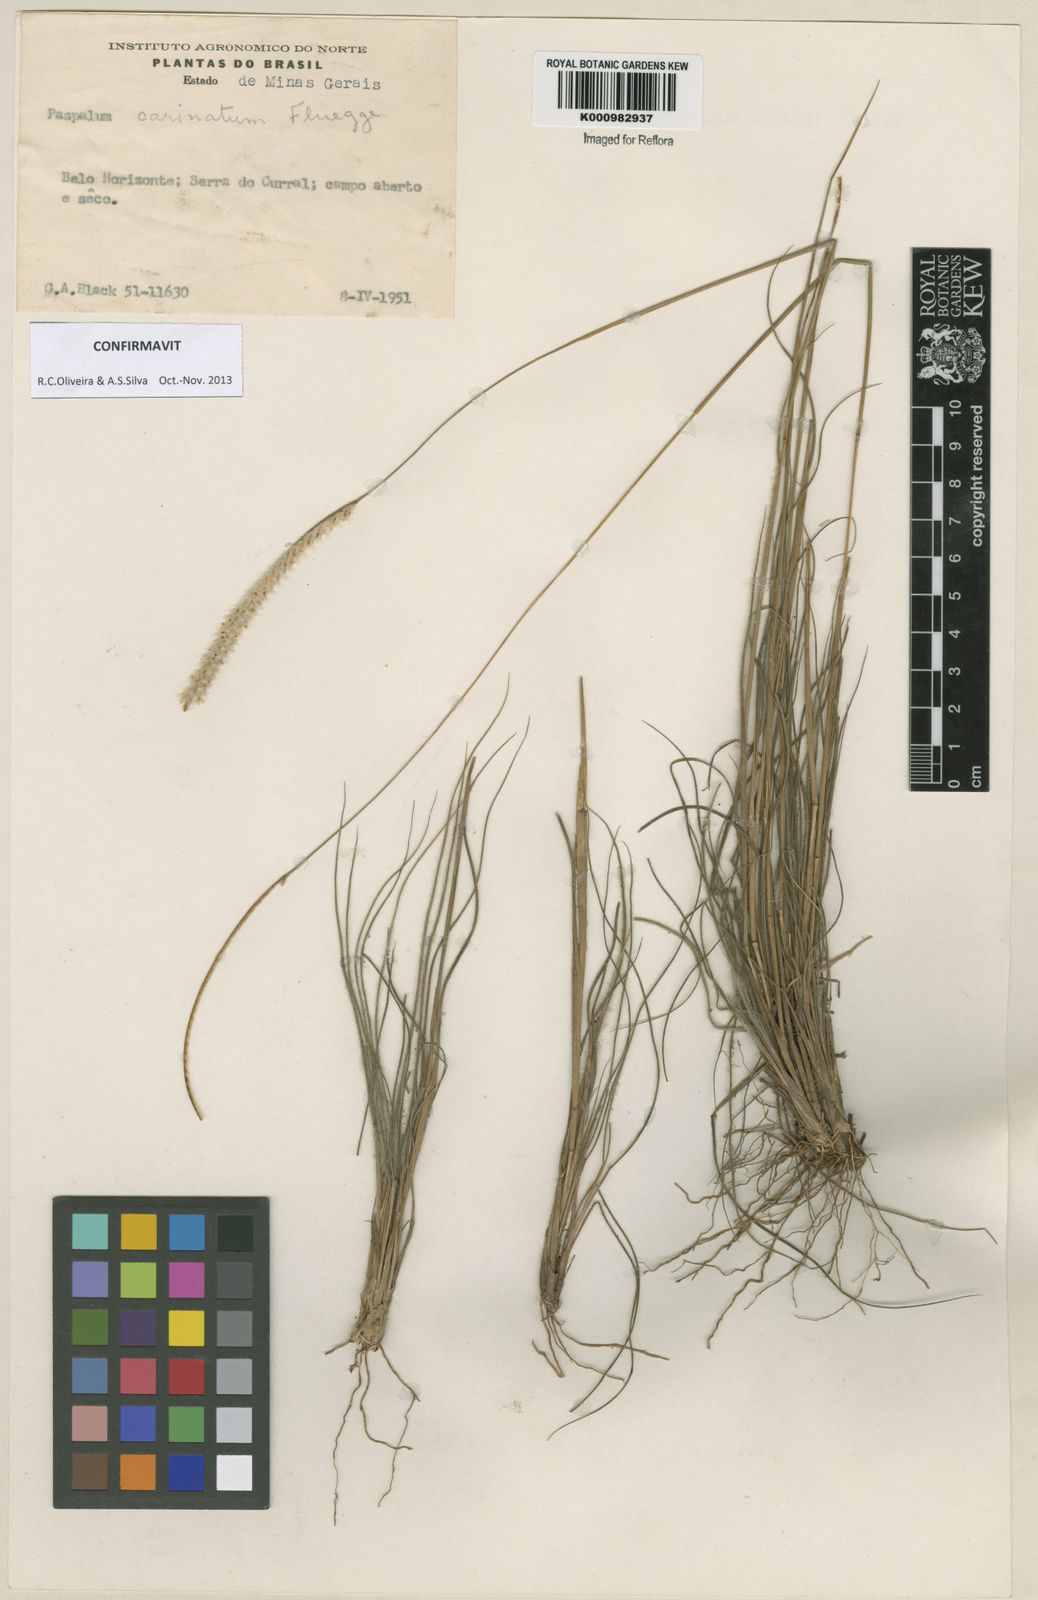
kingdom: Plantae
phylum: Tracheophyta
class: Liliopsida
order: Poales
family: Poaceae
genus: Paspalum
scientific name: Paspalum
